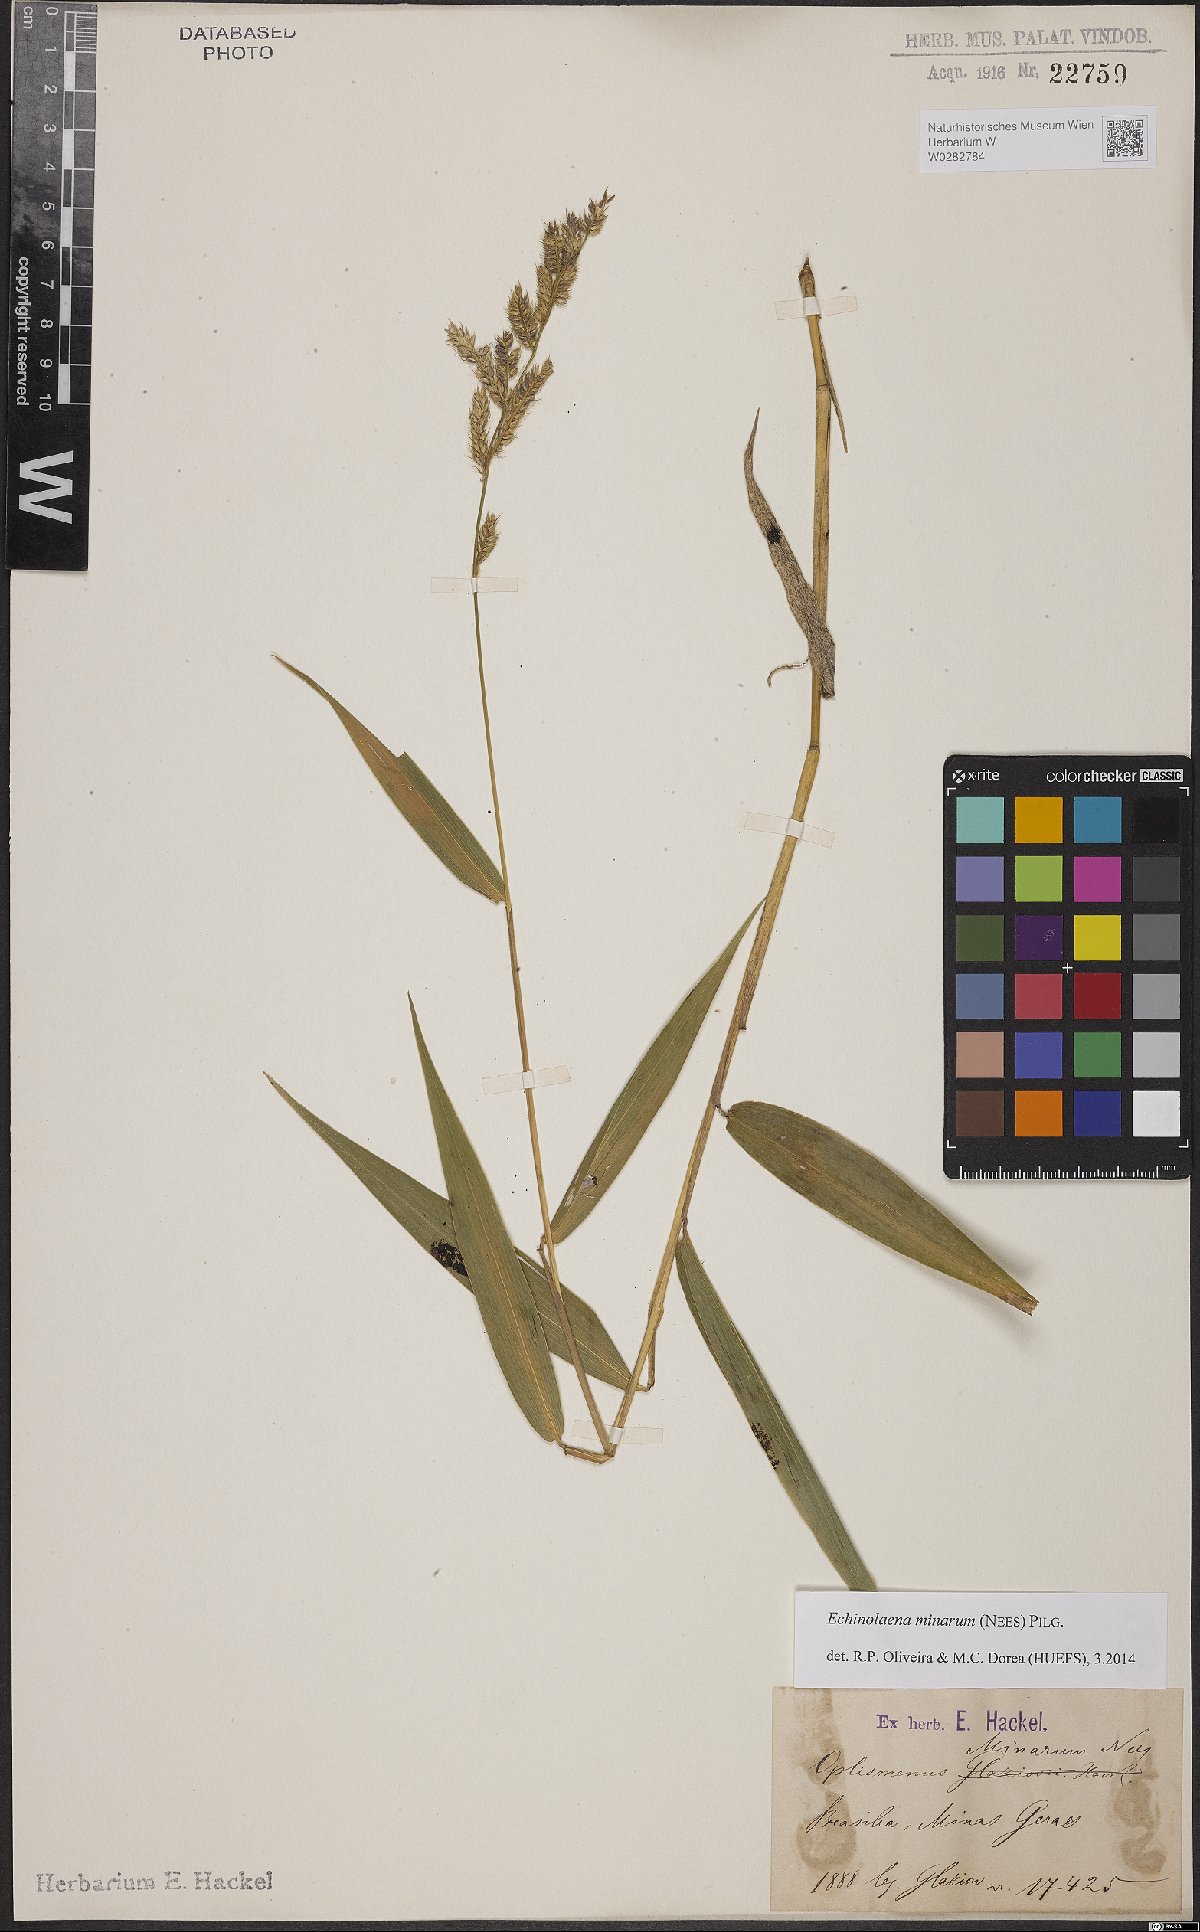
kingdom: Plantae
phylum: Tracheophyta
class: Liliopsida
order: Poales
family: Poaceae
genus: Oedochloa
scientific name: Oedochloa minarum
